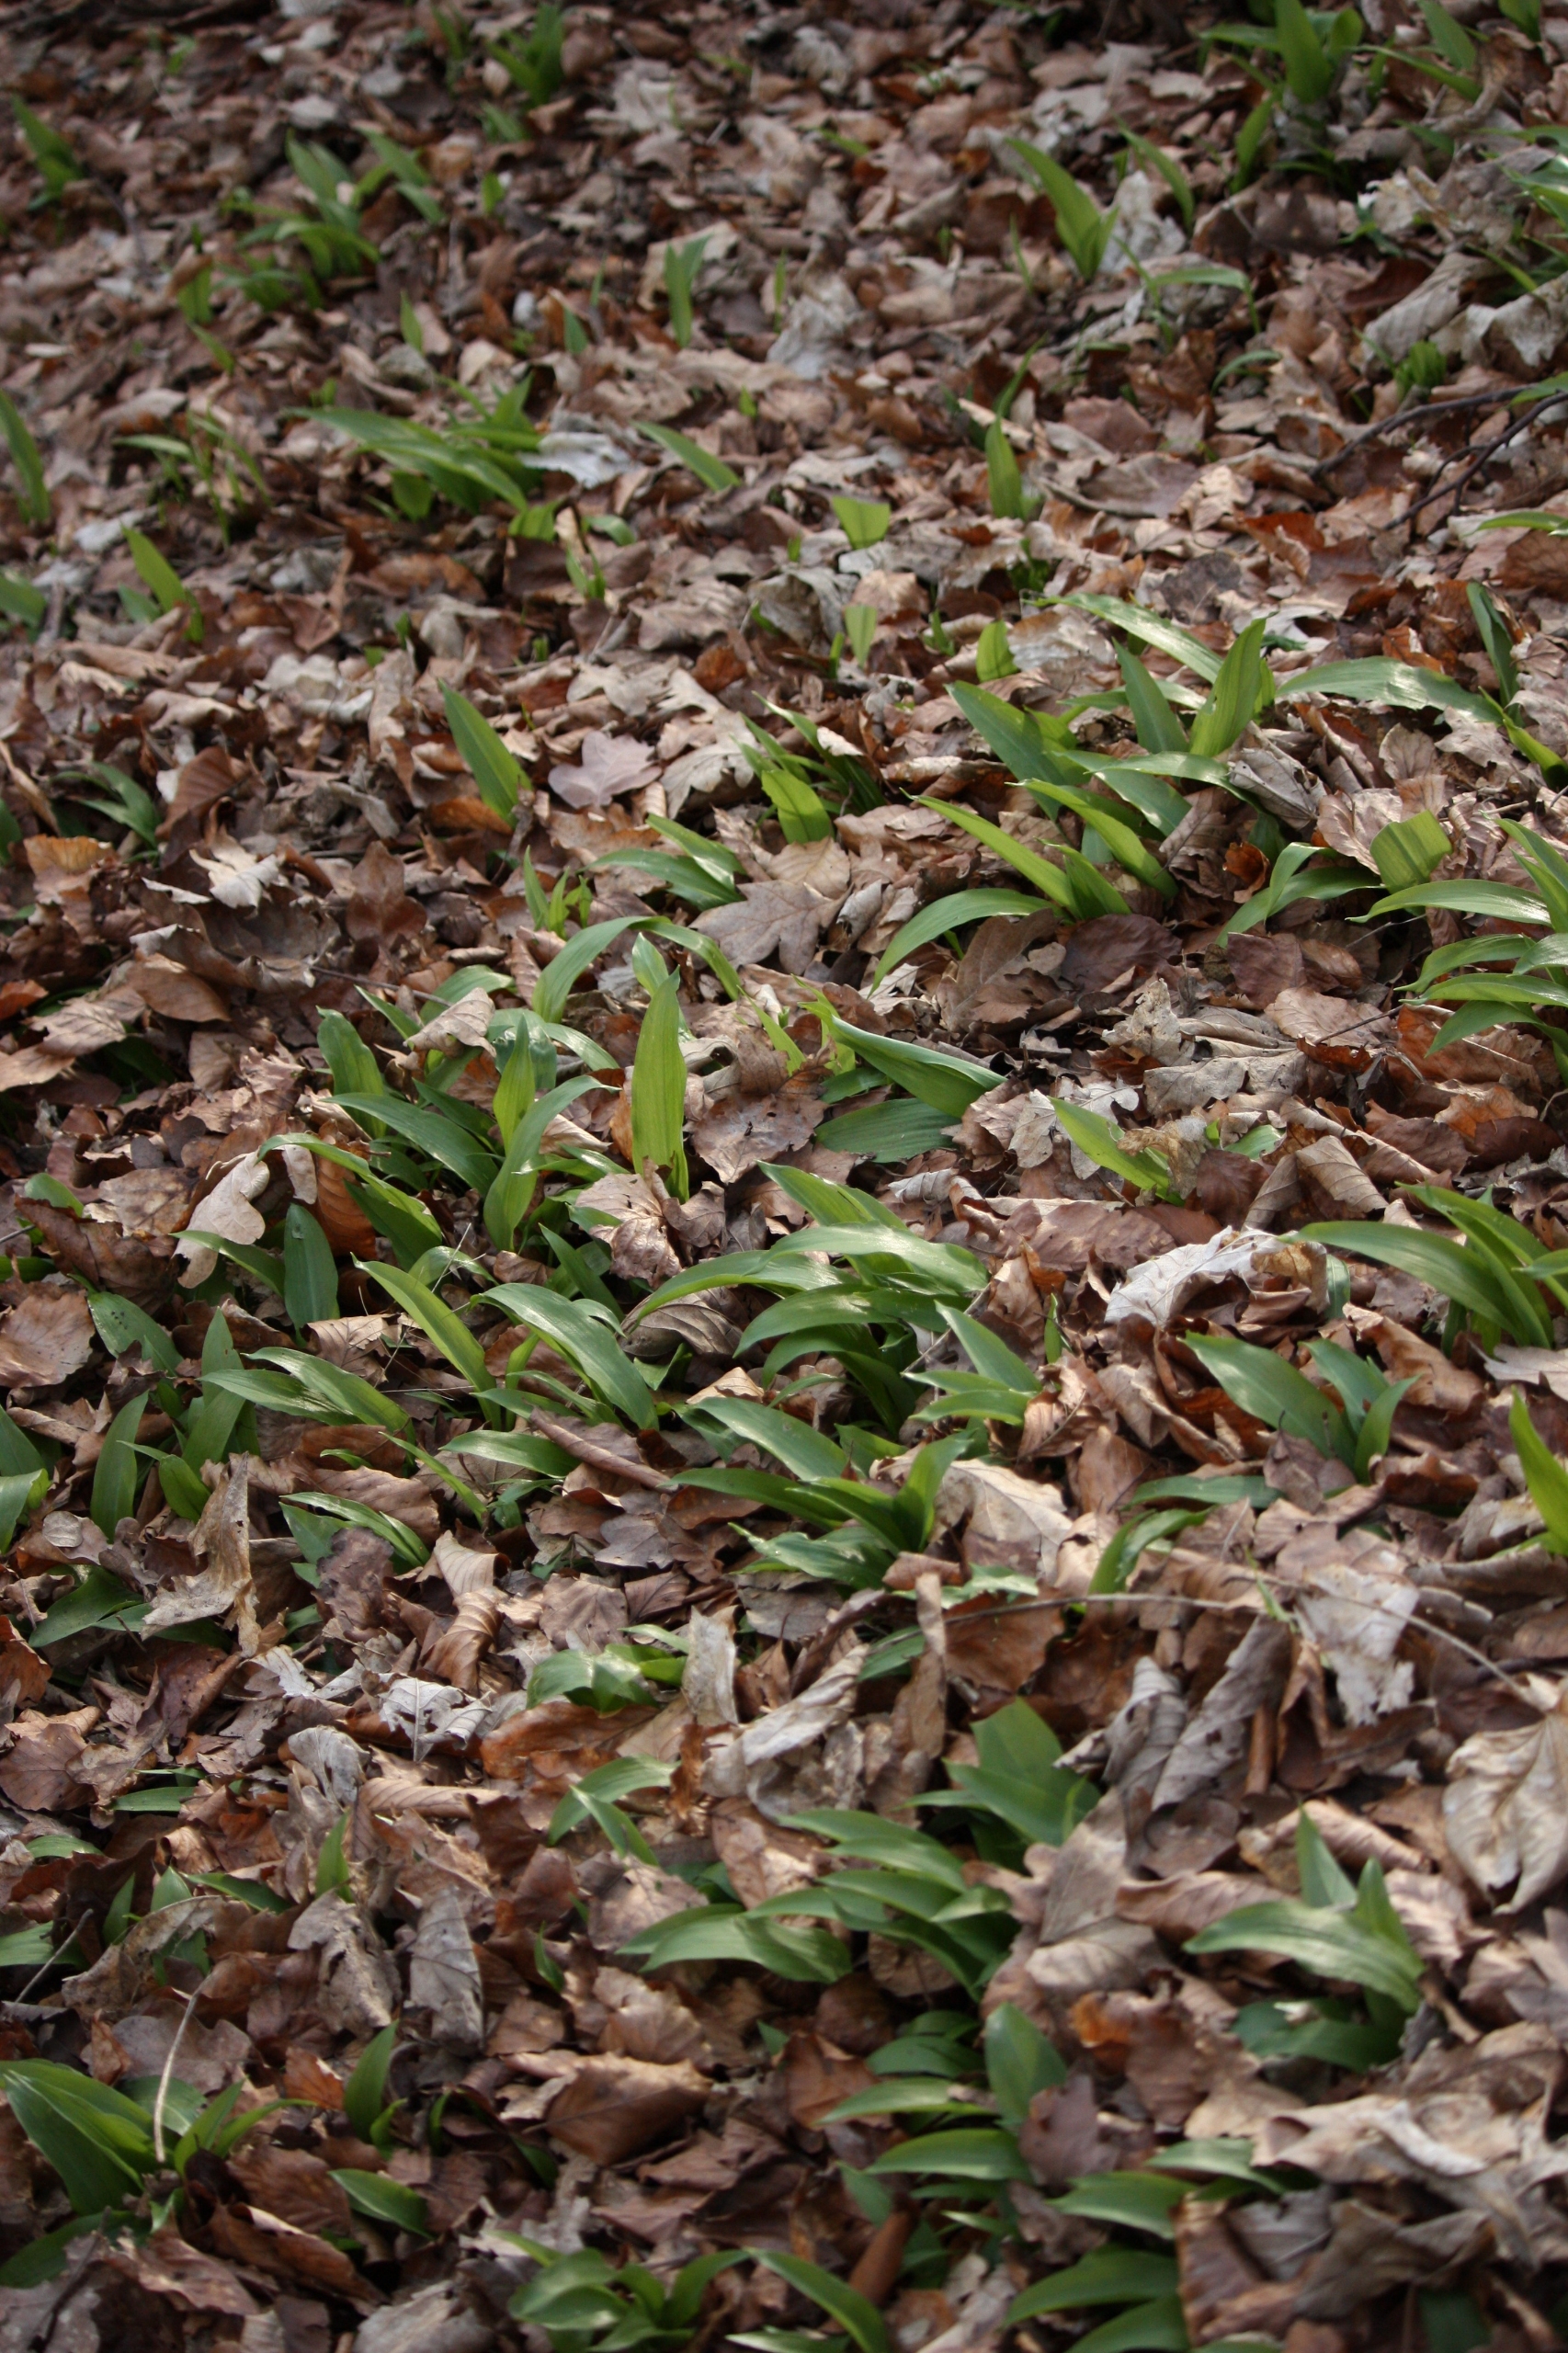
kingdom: Plantae
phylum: Tracheophyta
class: Liliopsida
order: Asparagales
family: Amaryllidaceae
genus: Allium
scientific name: Allium ursinum
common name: Rams-løg
